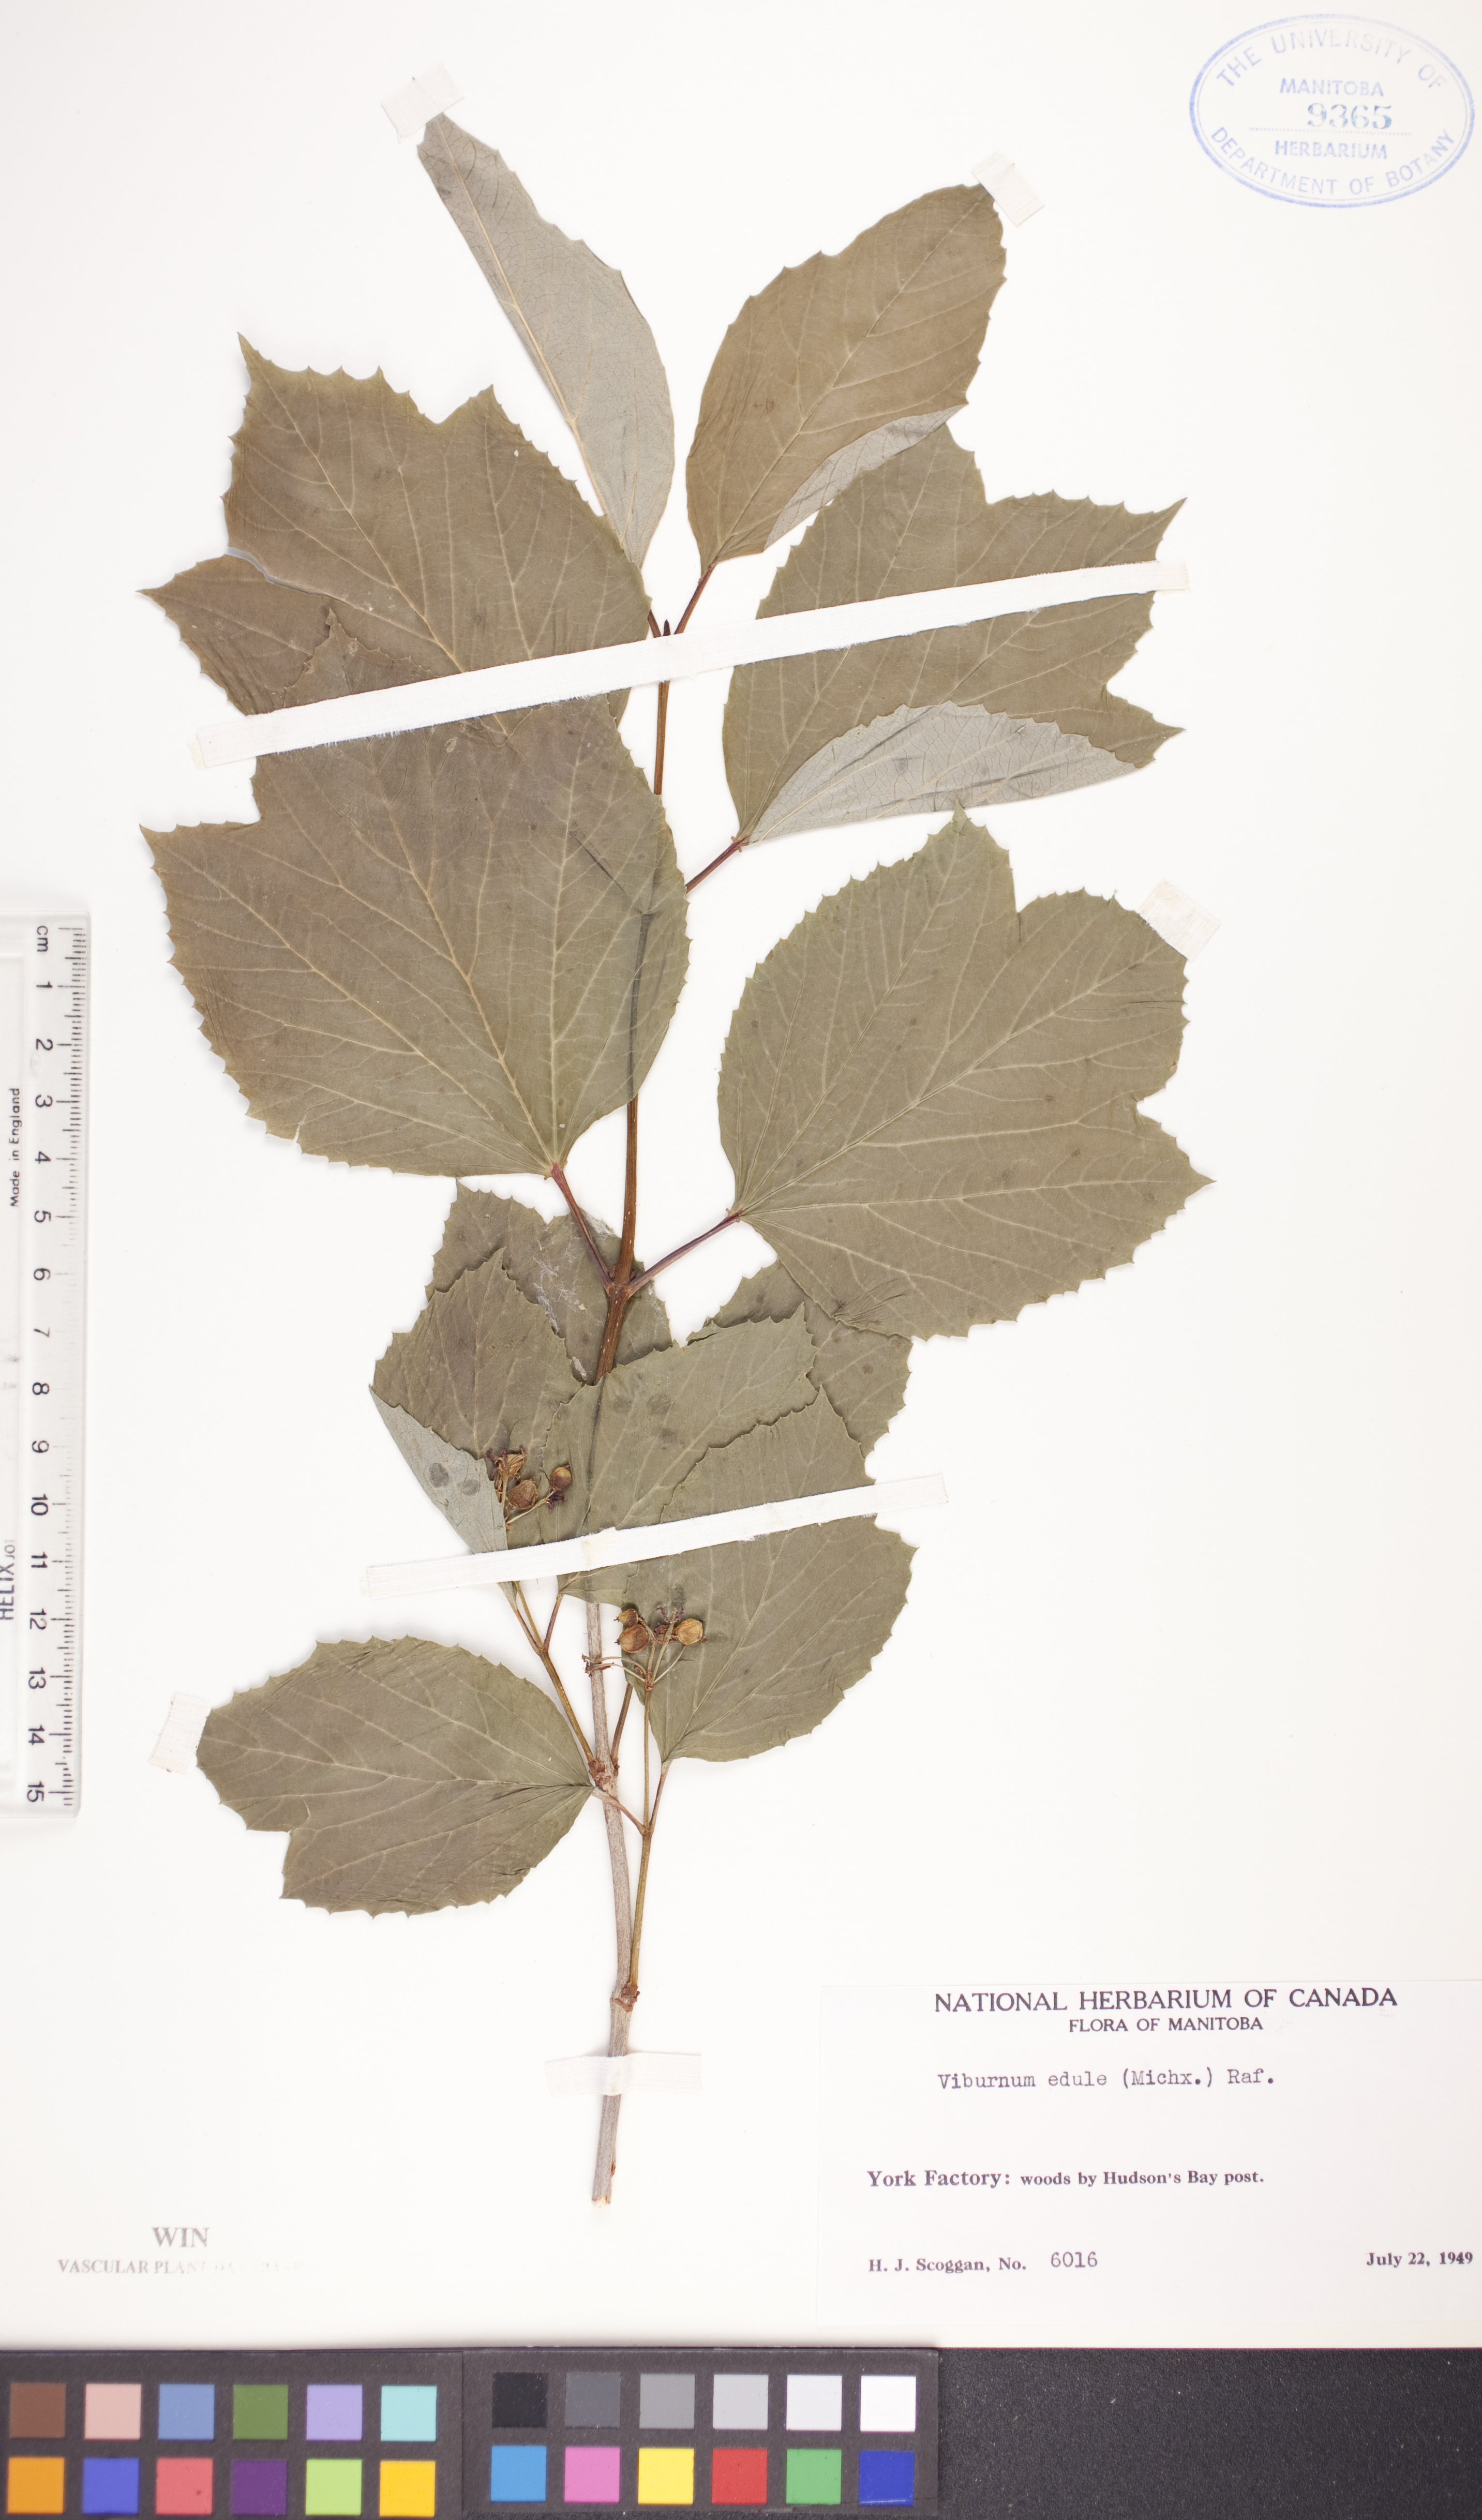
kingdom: Plantae
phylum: Tracheophyta
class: Magnoliopsida
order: Dipsacales
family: Viburnaceae
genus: Viburnum
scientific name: Viburnum edule
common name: Mooseberry
